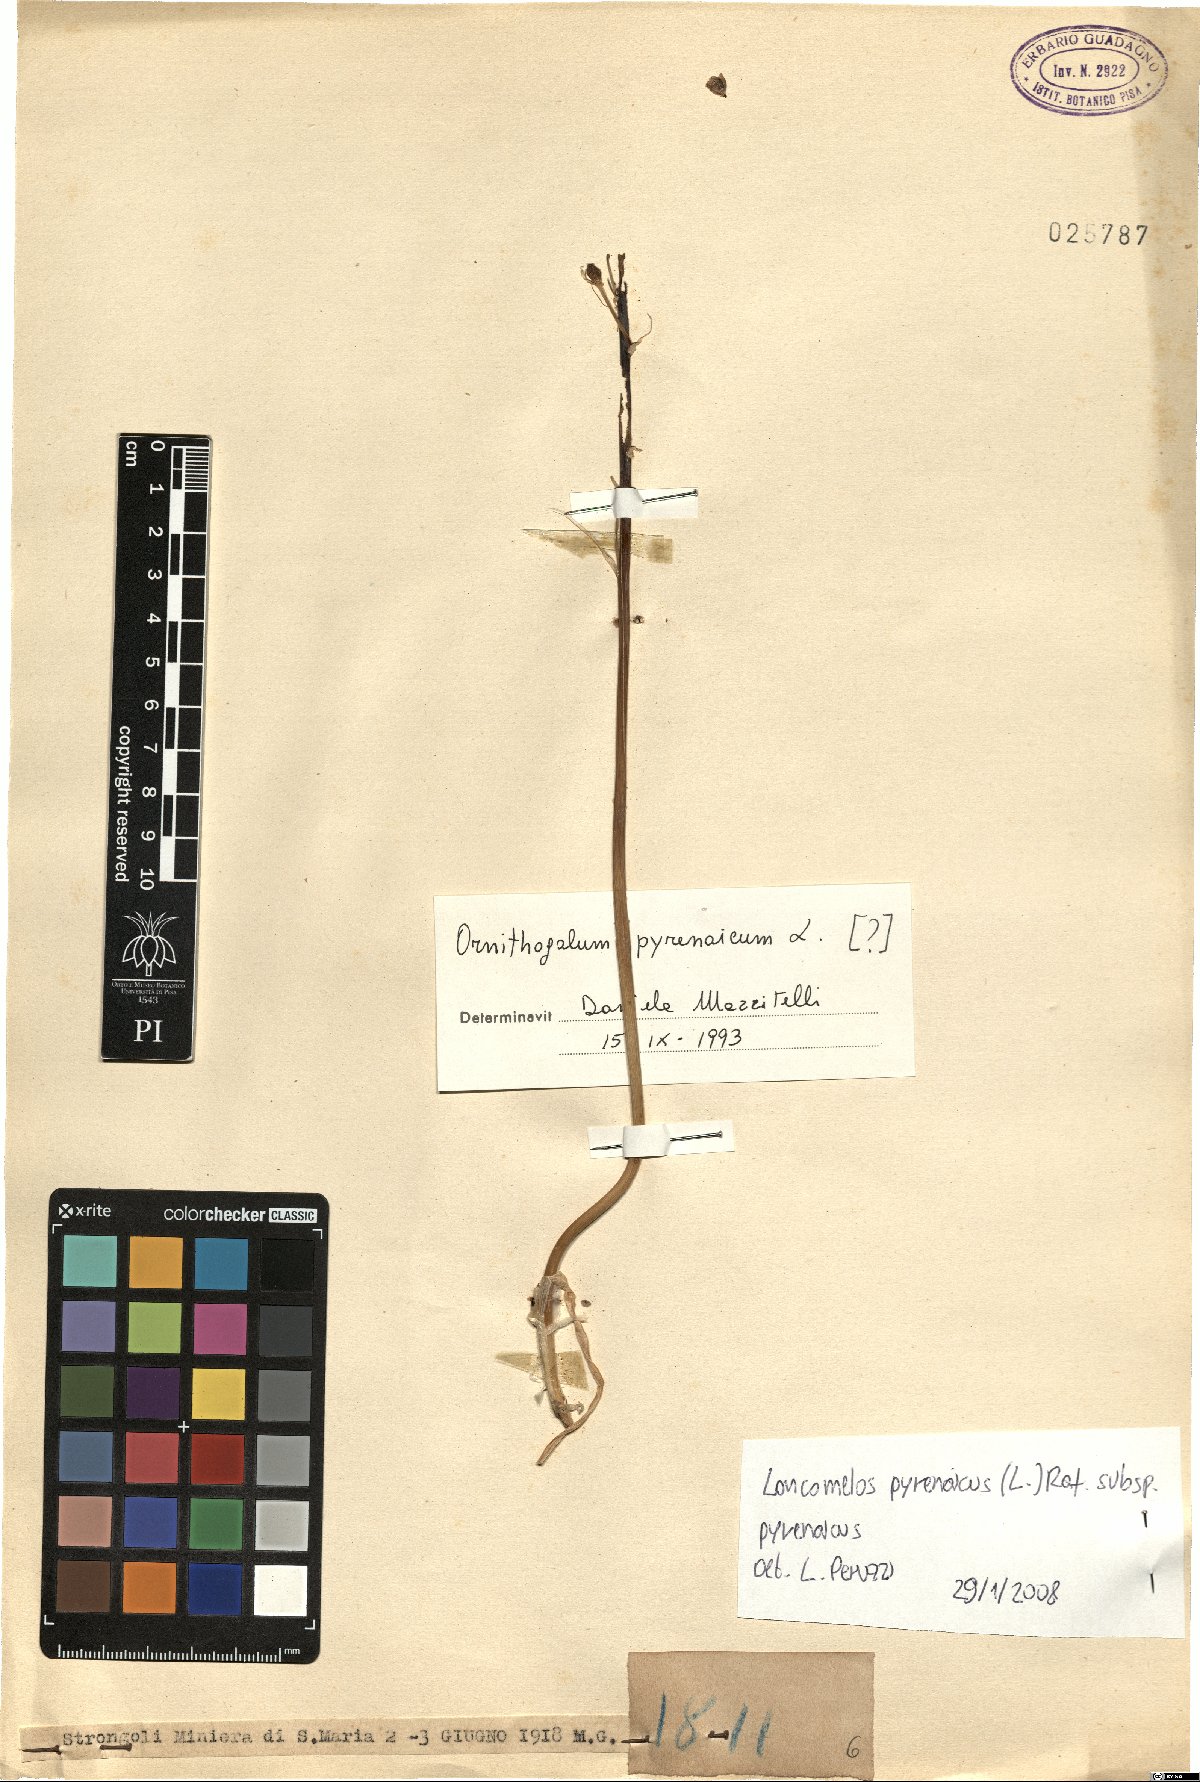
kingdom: Plantae
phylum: Tracheophyta
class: Liliopsida
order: Asparagales
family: Asparagaceae
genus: Ornithogalum
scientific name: Ornithogalum pyrenaicum
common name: Spiked star-of-bethlehem
